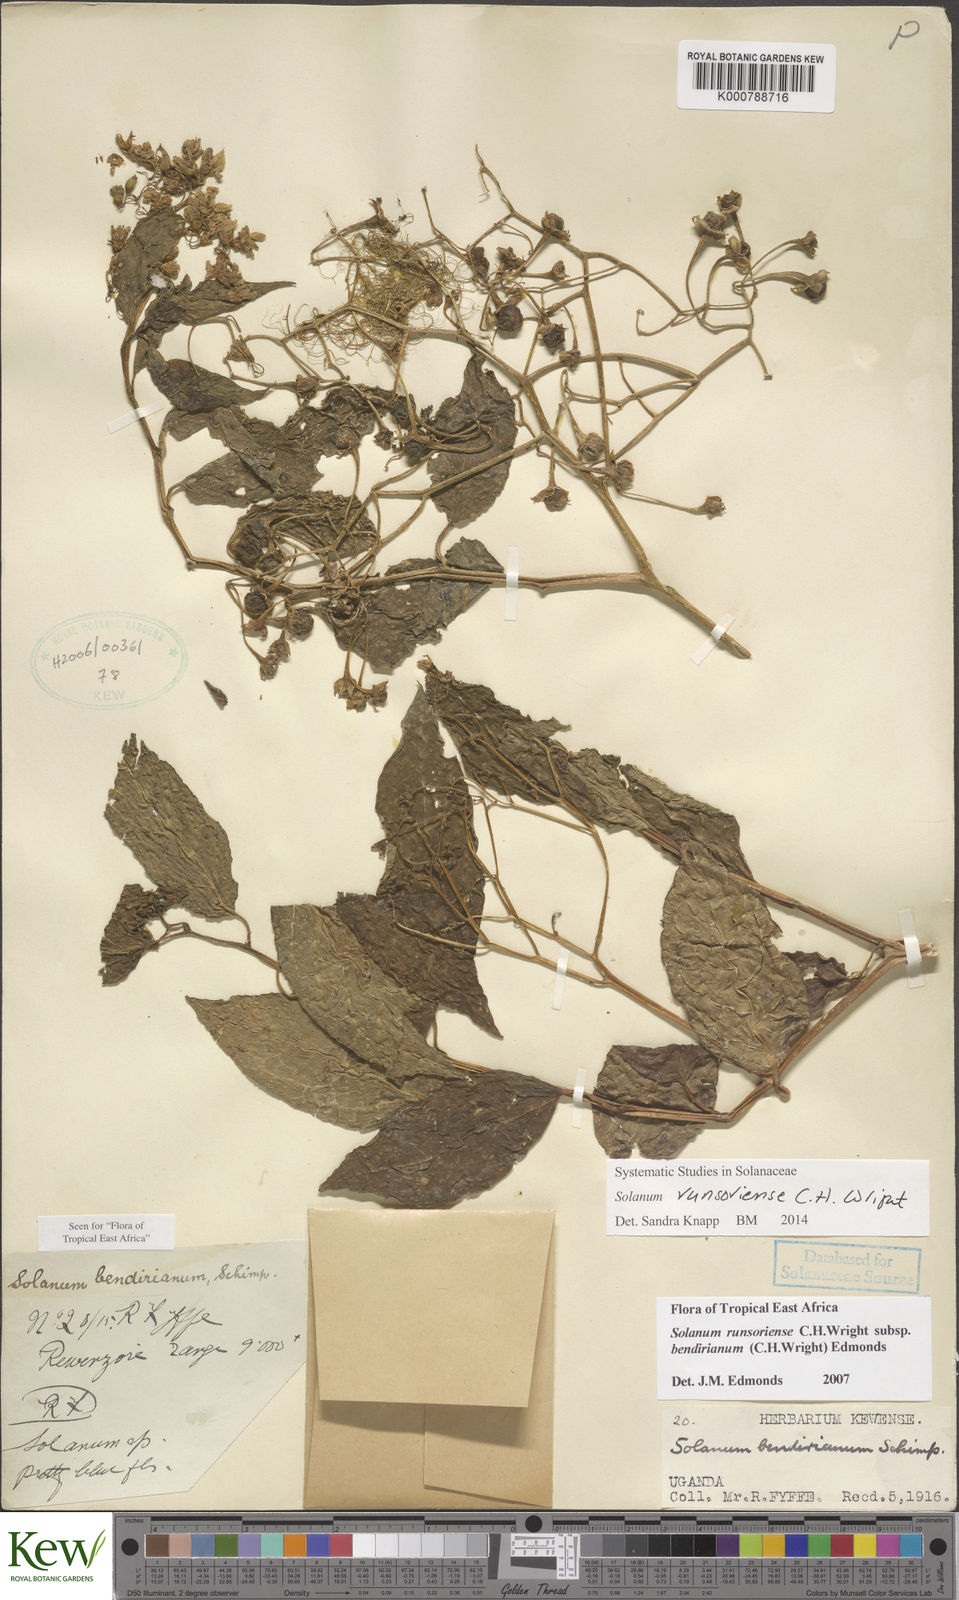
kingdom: Plantae
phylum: Tracheophyta
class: Magnoliopsida
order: Solanales
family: Solanaceae
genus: Solanum
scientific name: Solanum runsoriense
